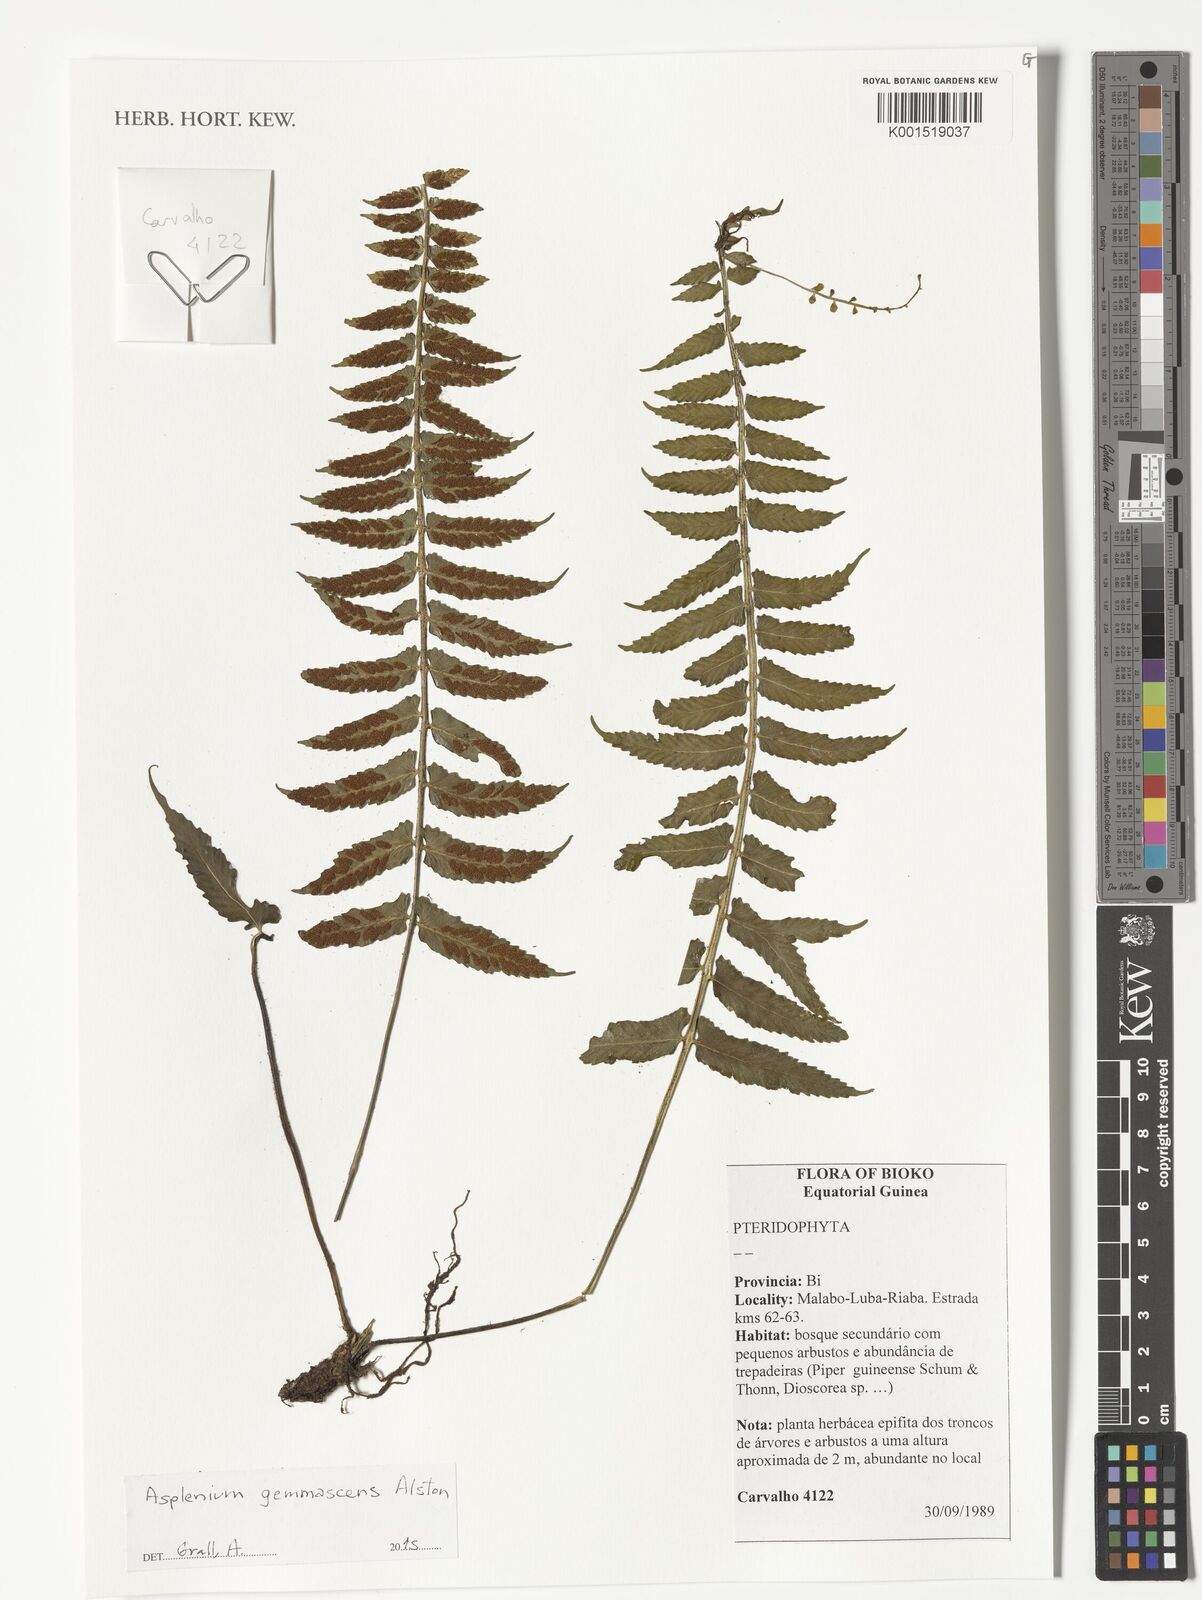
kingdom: Plantae
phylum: Tracheophyta
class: Polypodiopsida
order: Polypodiales
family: Aspleniaceae
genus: Asplenium
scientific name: Asplenium gemmascens
